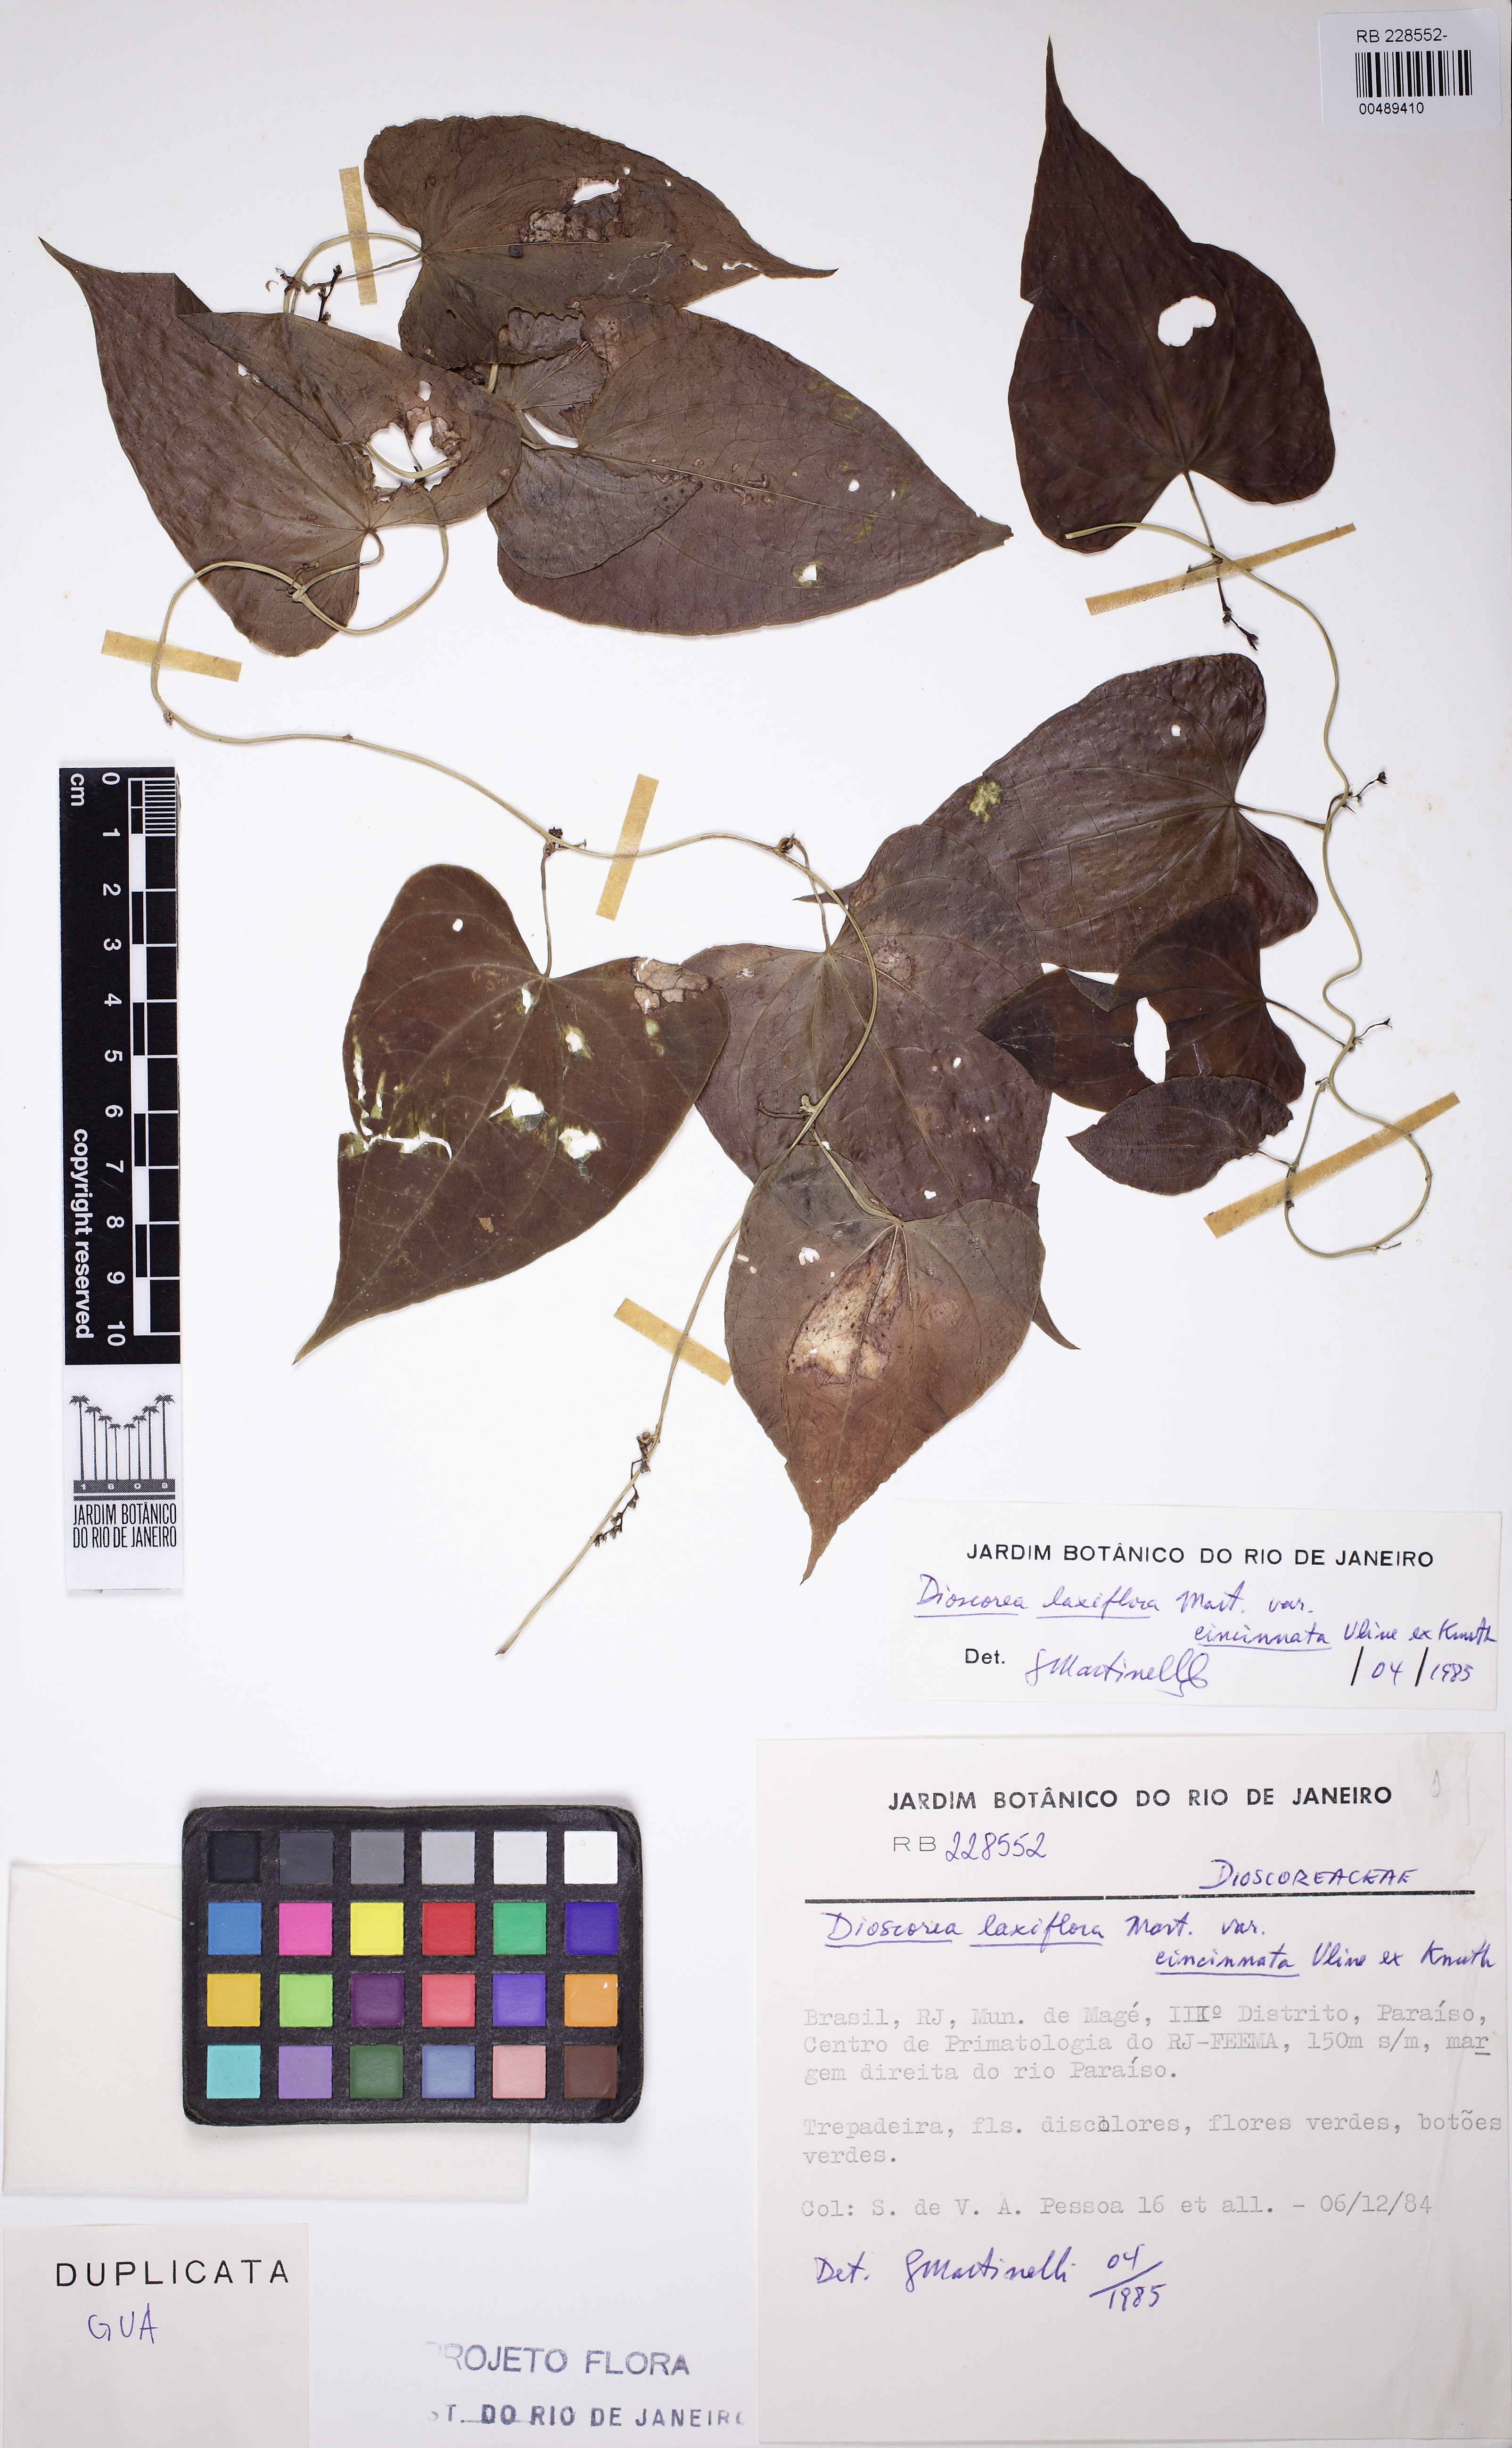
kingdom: Plantae
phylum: Tracheophyta
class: Liliopsida
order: Dioscoreales
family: Dioscoreaceae
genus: Dioscorea
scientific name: Dioscorea laxiflora
